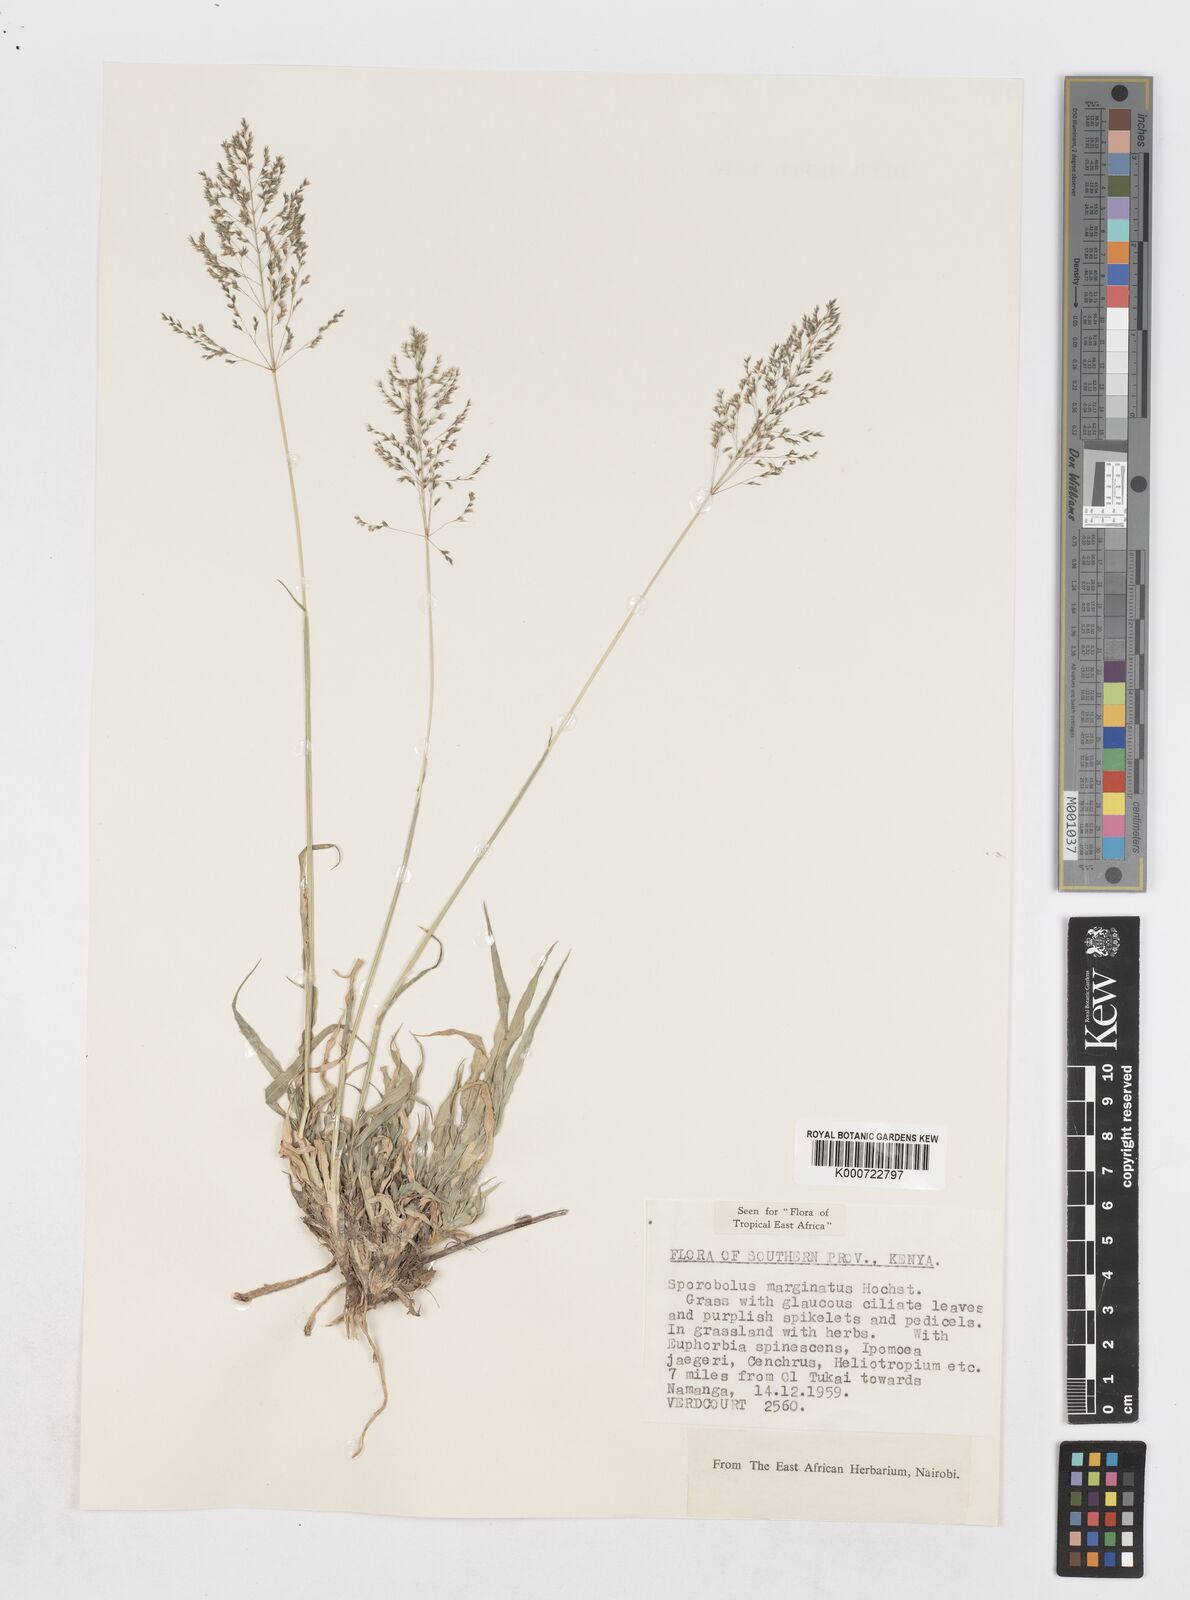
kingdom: Plantae
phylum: Tracheophyta
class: Liliopsida
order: Poales
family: Poaceae
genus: Sporobolus
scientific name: Sporobolus ioclados
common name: Pan dropseed
